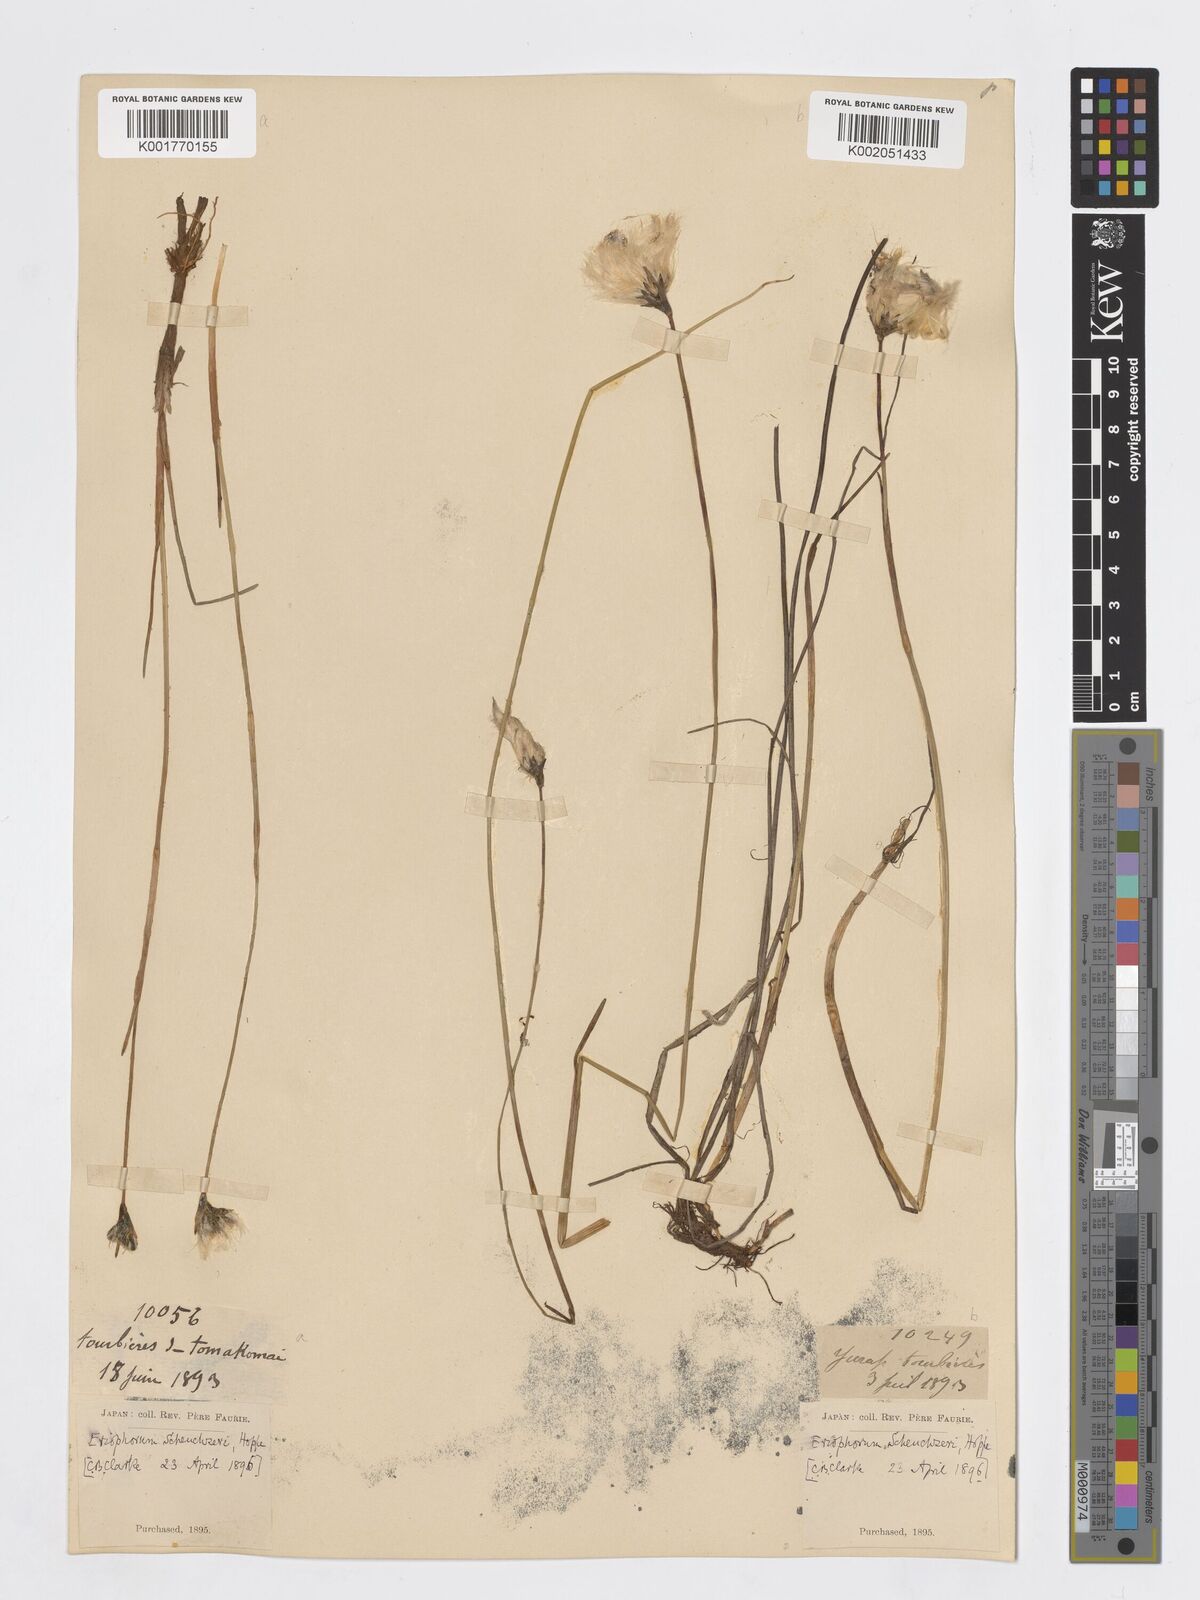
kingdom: Plantae
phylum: Tracheophyta
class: Liliopsida
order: Poales
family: Cyperaceae
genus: Eriophorum
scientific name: Eriophorum scheuchzeri
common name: Scheuchzer's cottongrass
